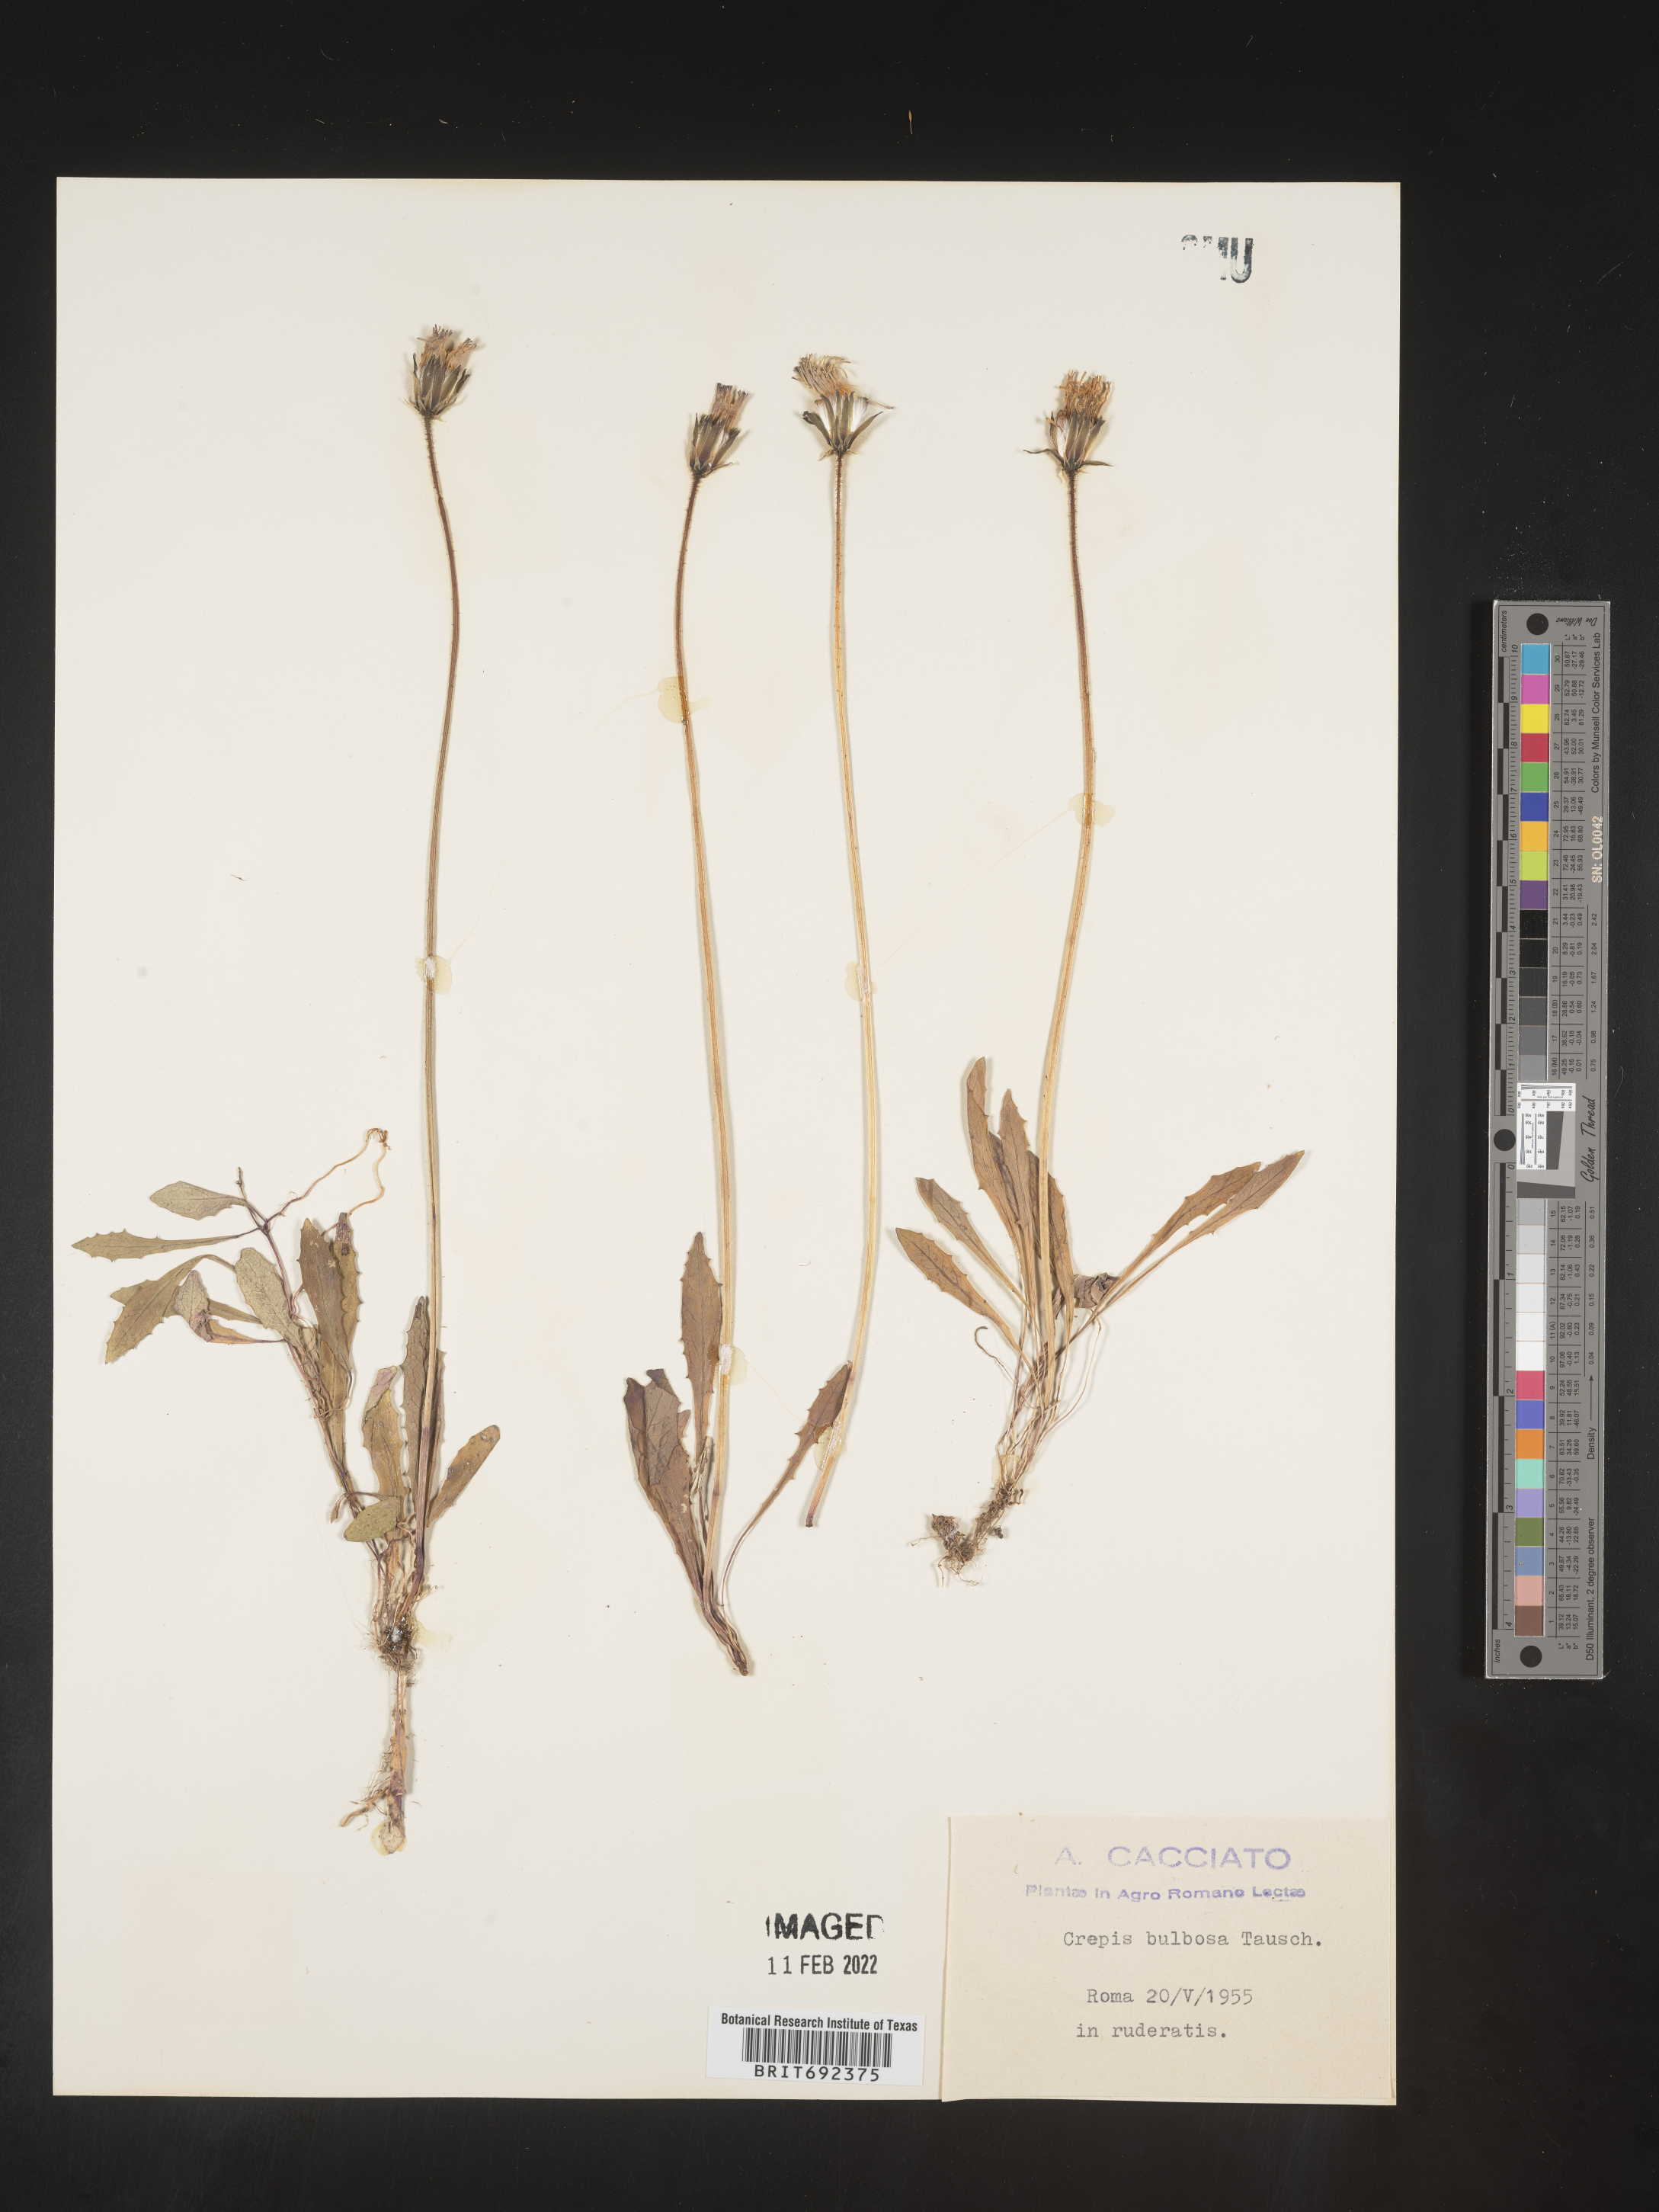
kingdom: Plantae
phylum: Tracheophyta
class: Magnoliopsida
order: Asterales
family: Asteraceae
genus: Crepis
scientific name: Crepis
